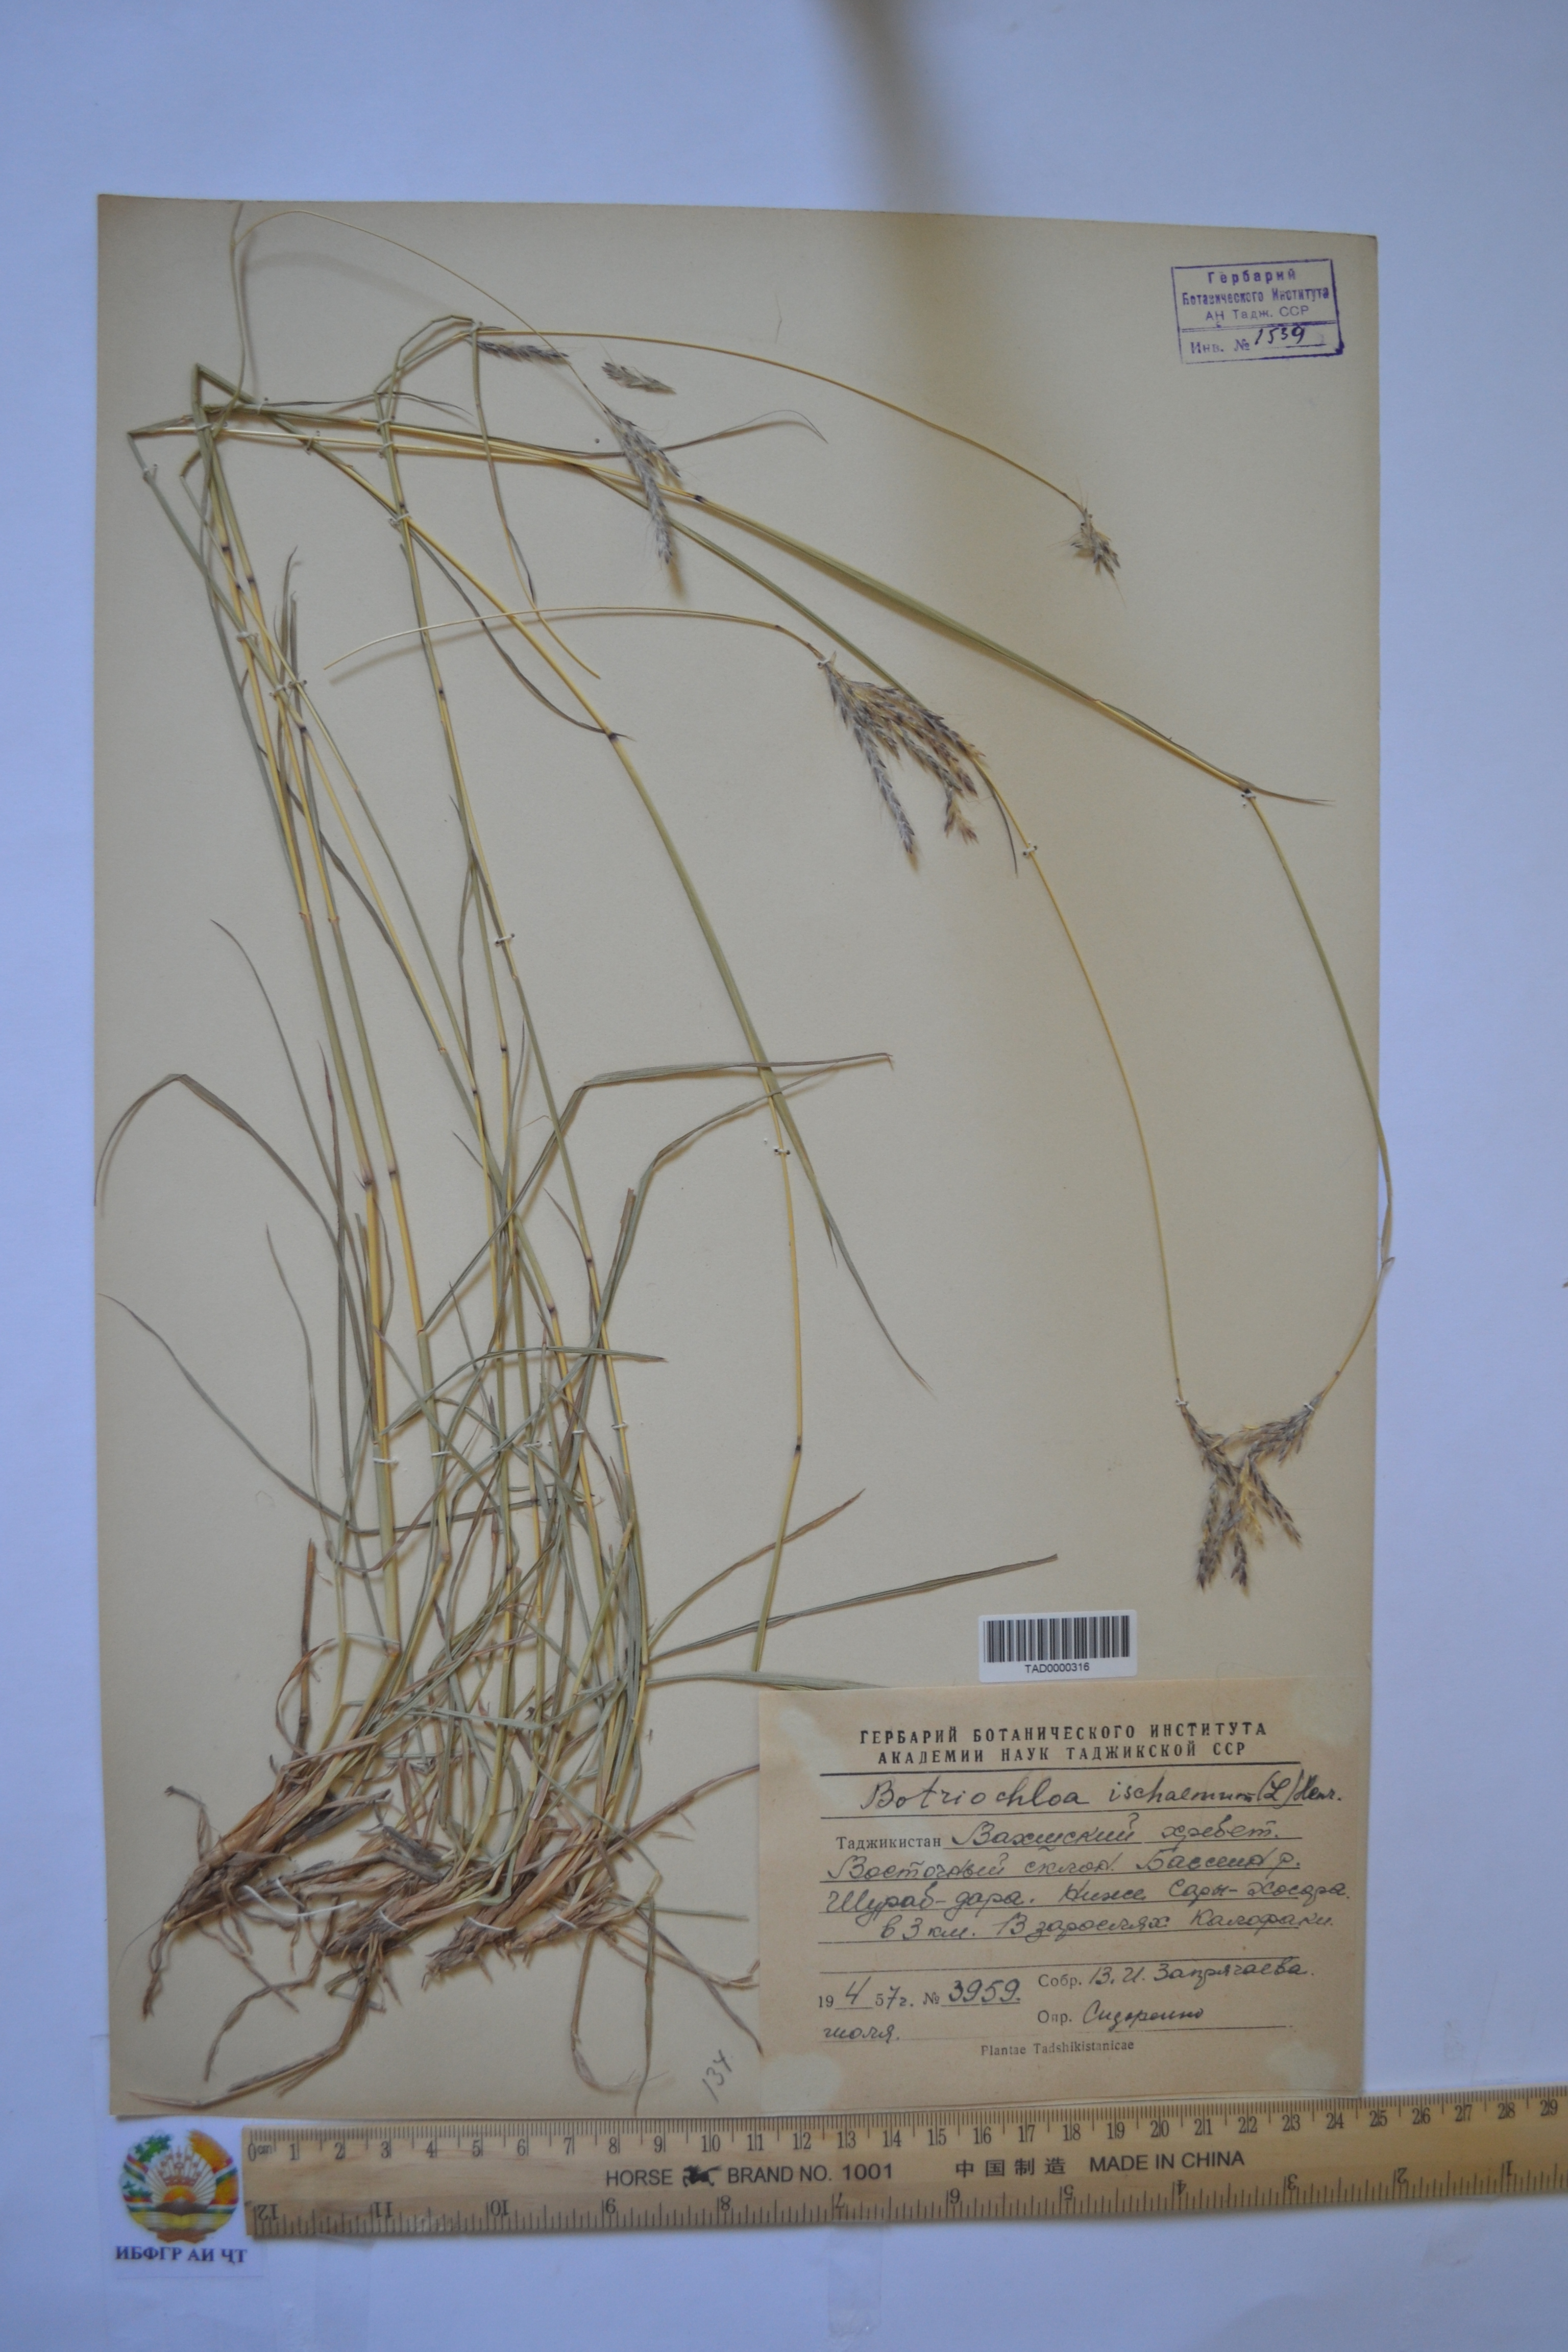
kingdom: Plantae
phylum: Tracheophyta
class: Liliopsida
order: Poales
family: Poaceae
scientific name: Poaceae
